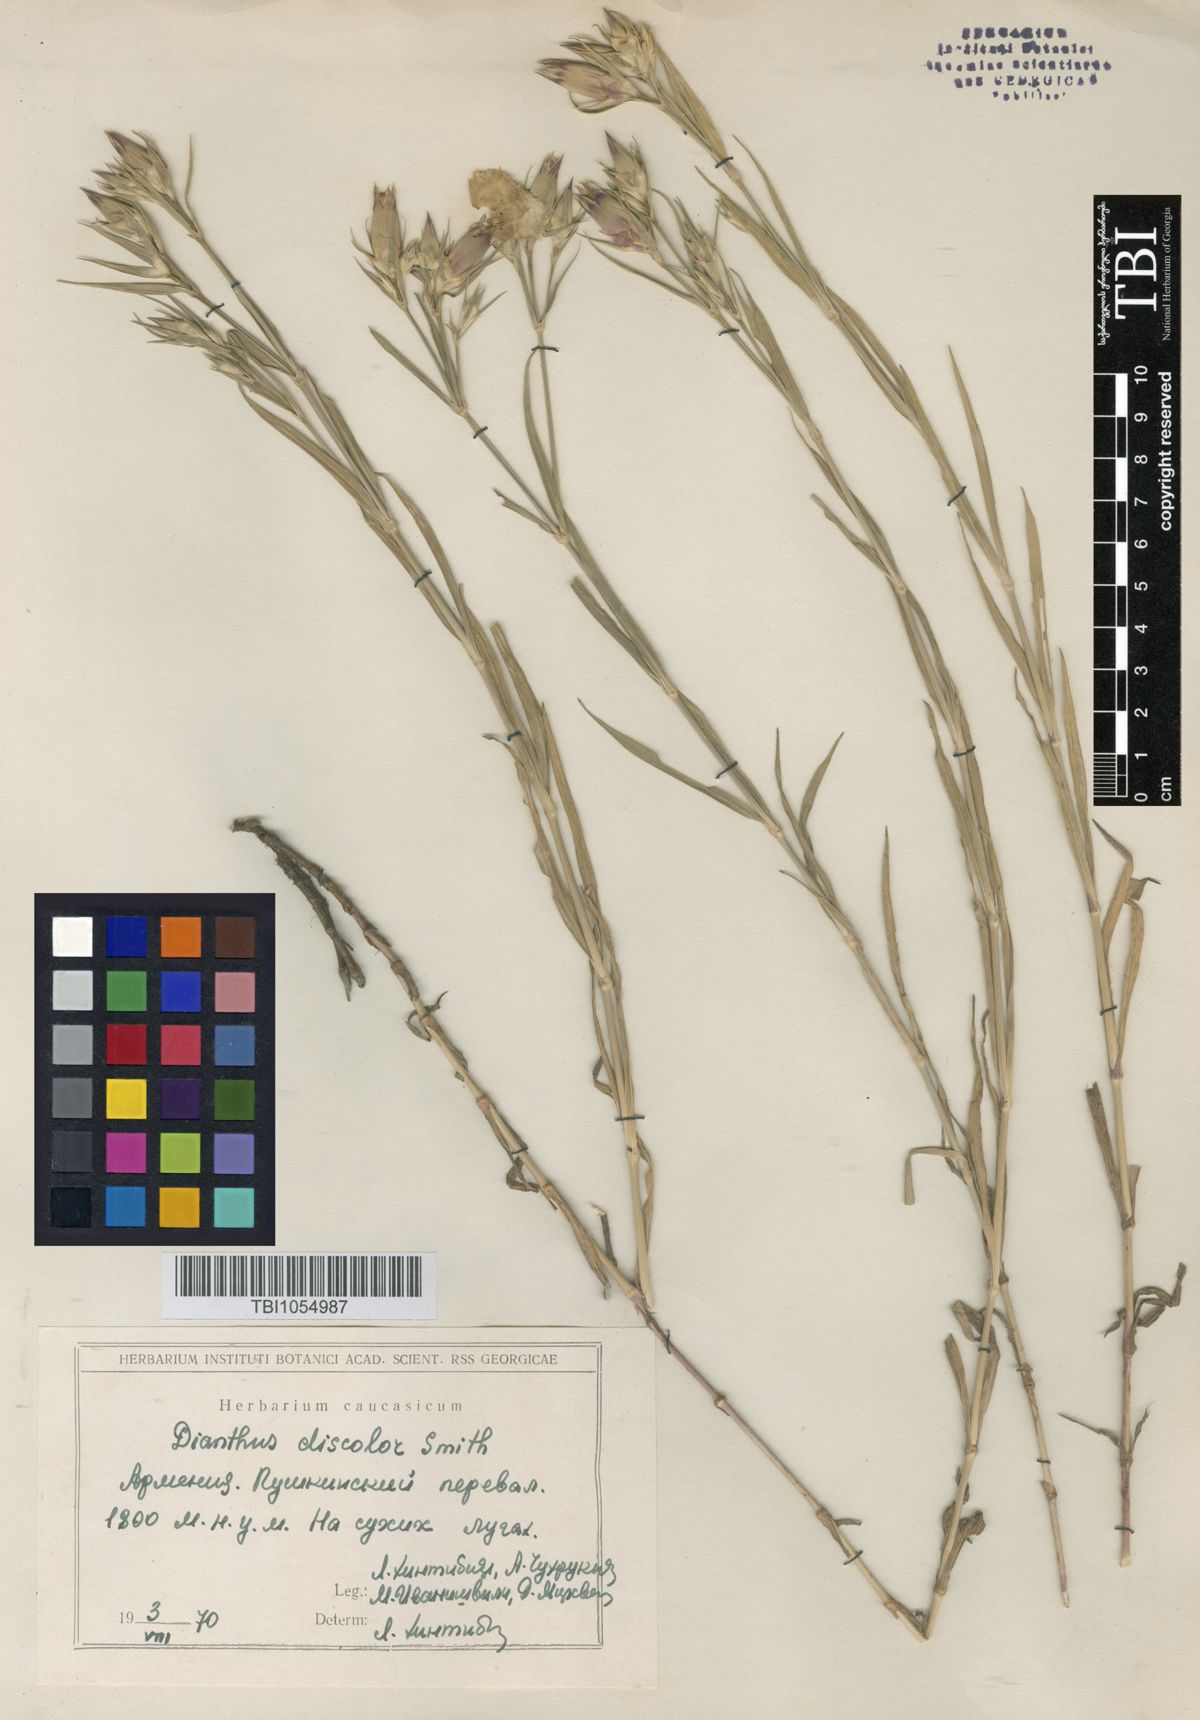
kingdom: Plantae
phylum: Tracheophyta
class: Magnoliopsida
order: Caryophyllales
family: Caryophyllaceae
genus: Dianthus
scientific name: Dianthus caucaseus
